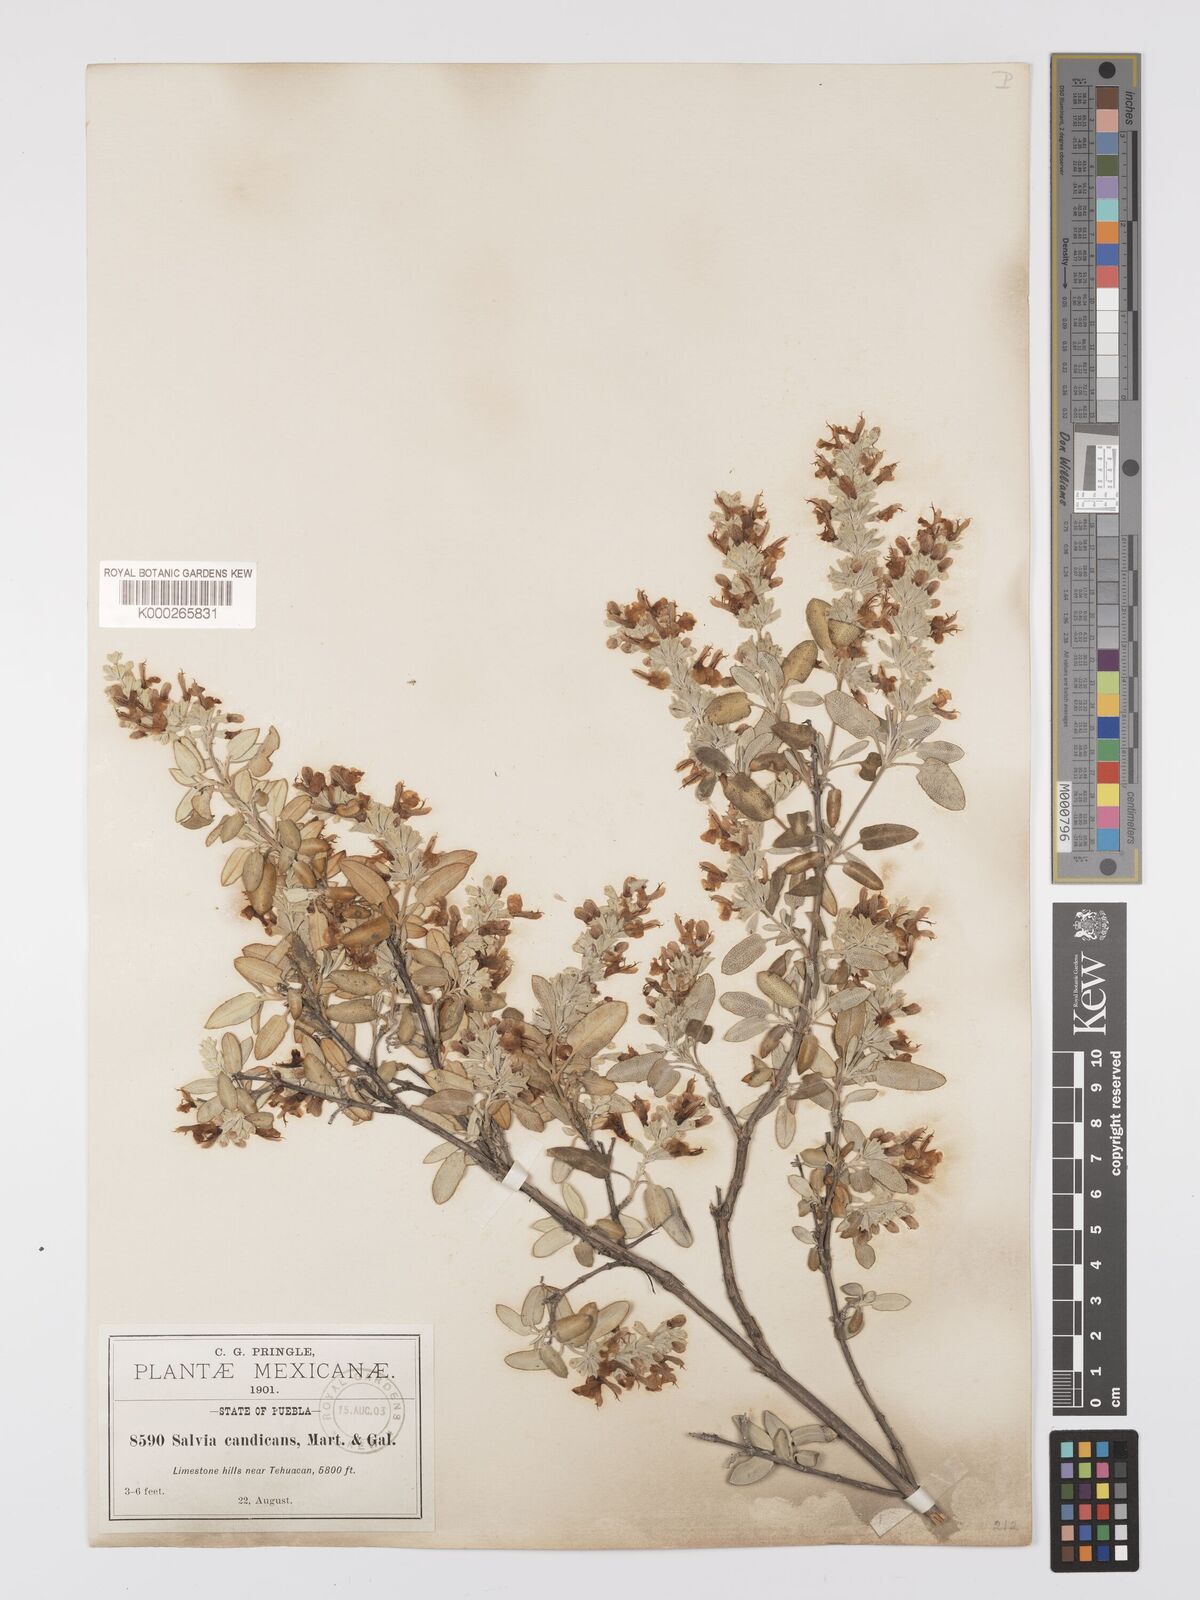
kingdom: Plantae
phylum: Tracheophyta
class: Magnoliopsida
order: Lamiales
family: Lamiaceae
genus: Salvia
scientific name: Salvia candicans
